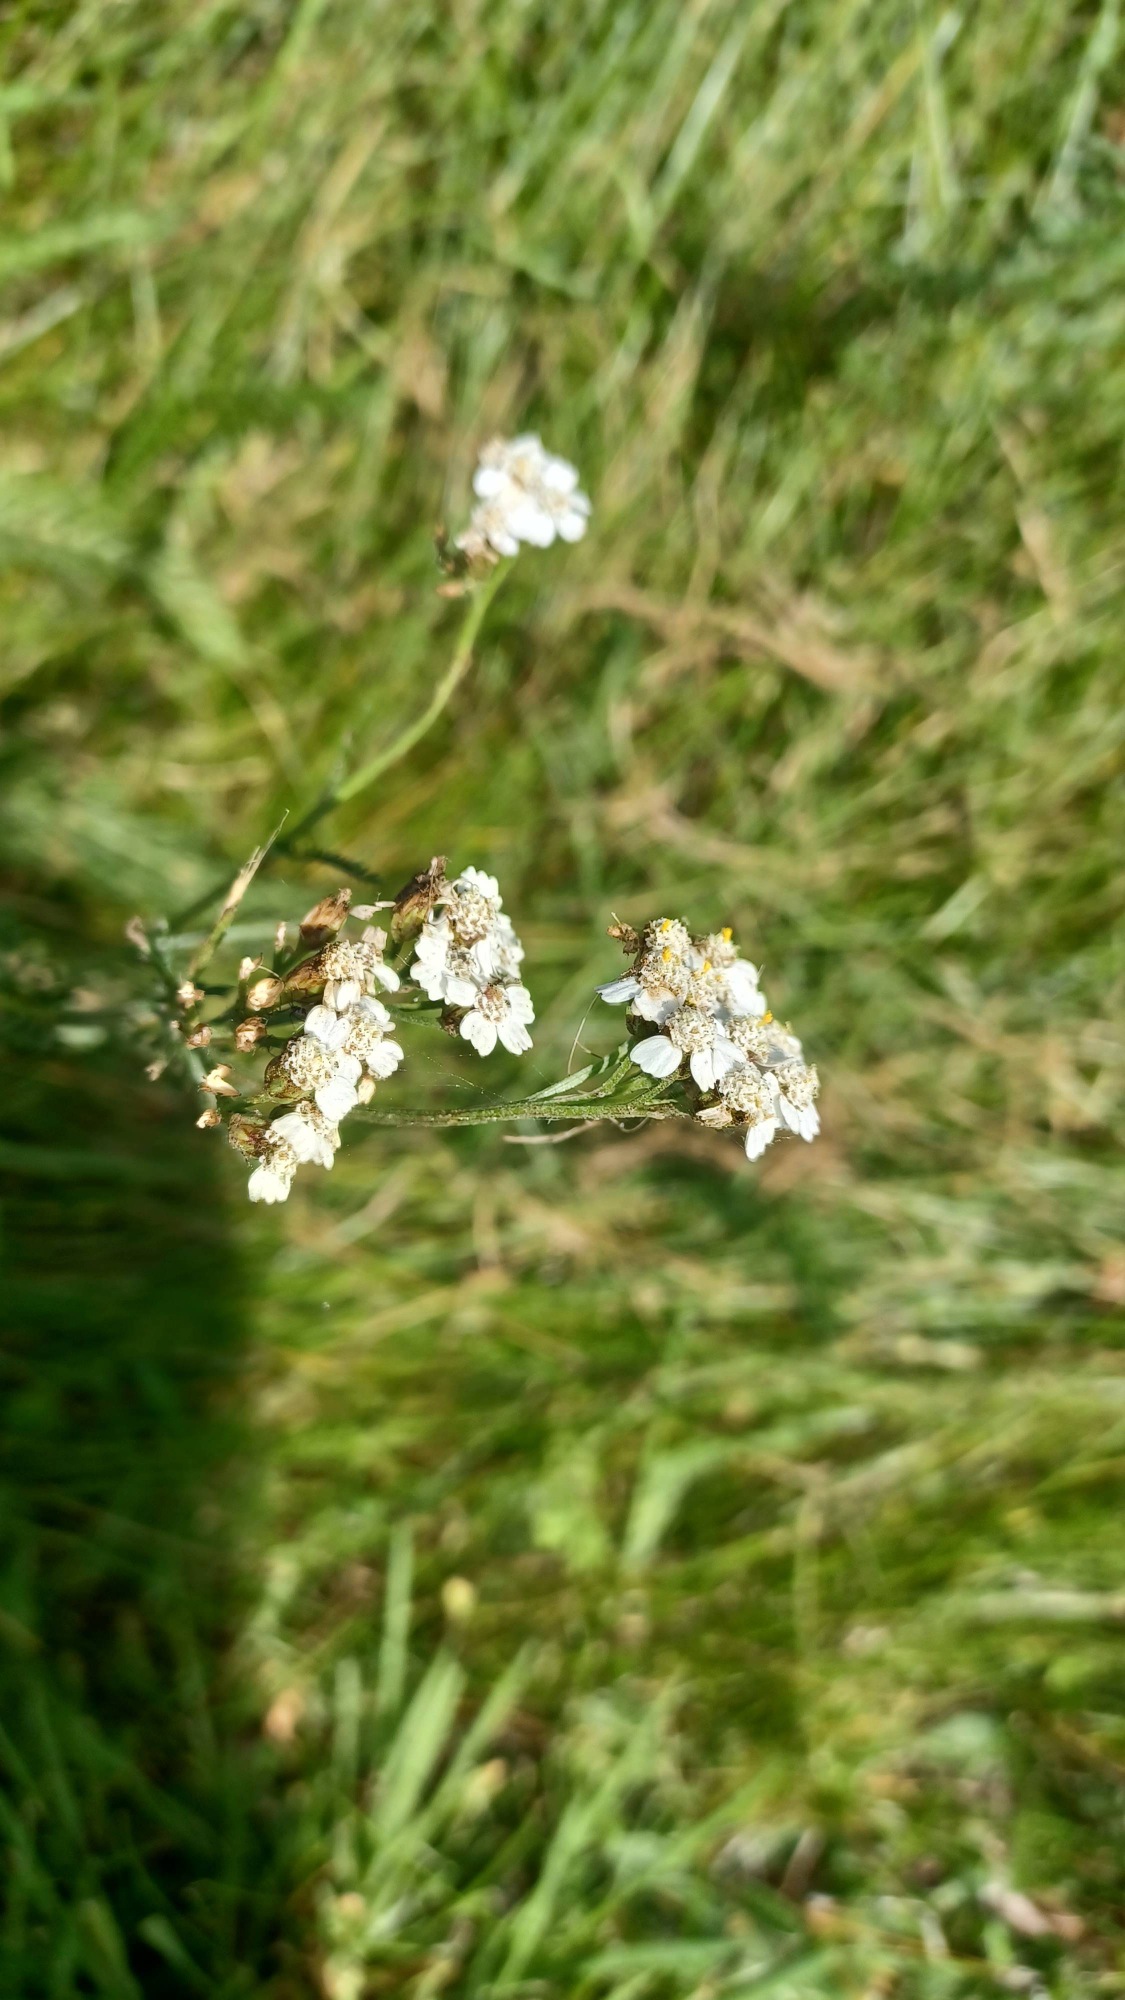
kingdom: Plantae
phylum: Tracheophyta
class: Magnoliopsida
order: Asterales
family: Asteraceae
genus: Achillea
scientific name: Achillea millefolium
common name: Almindelig røllike
